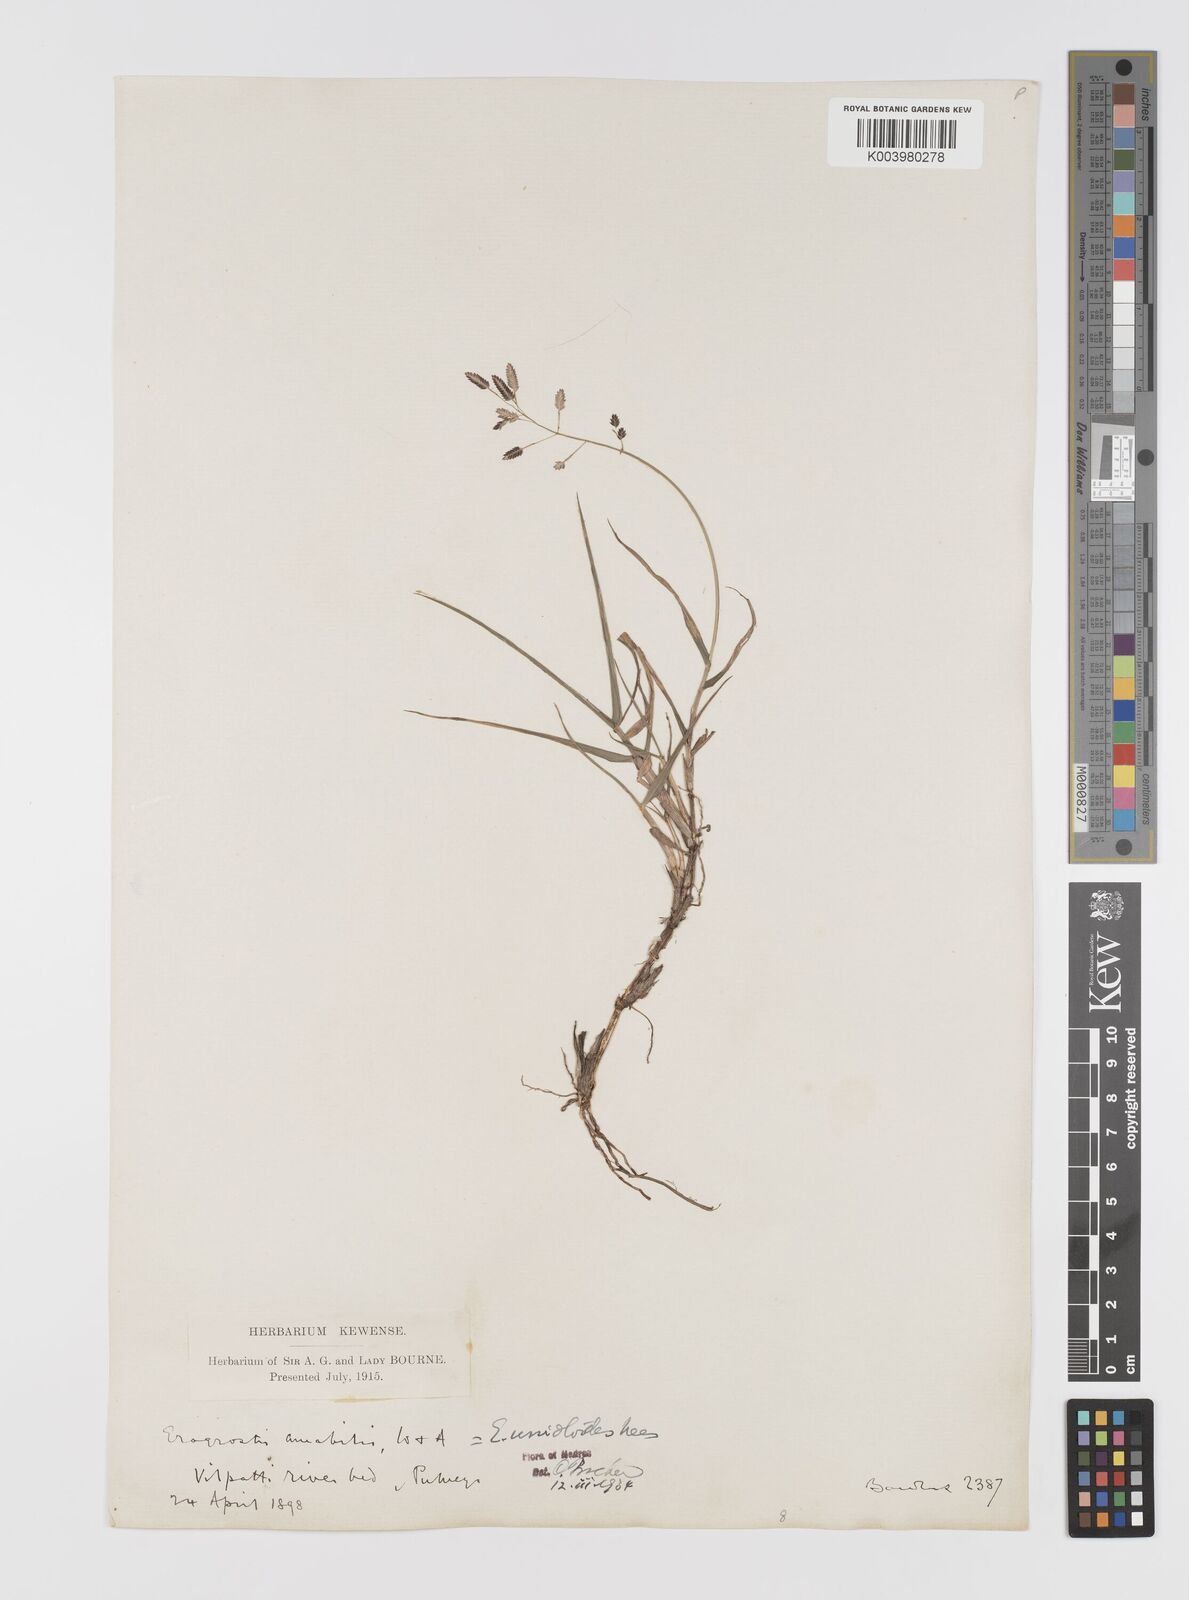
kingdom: Plantae
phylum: Tracheophyta
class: Liliopsida
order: Poales
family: Poaceae
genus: Eragrostis
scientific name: Eragrostis unioloides
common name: Chinese lovegrass
